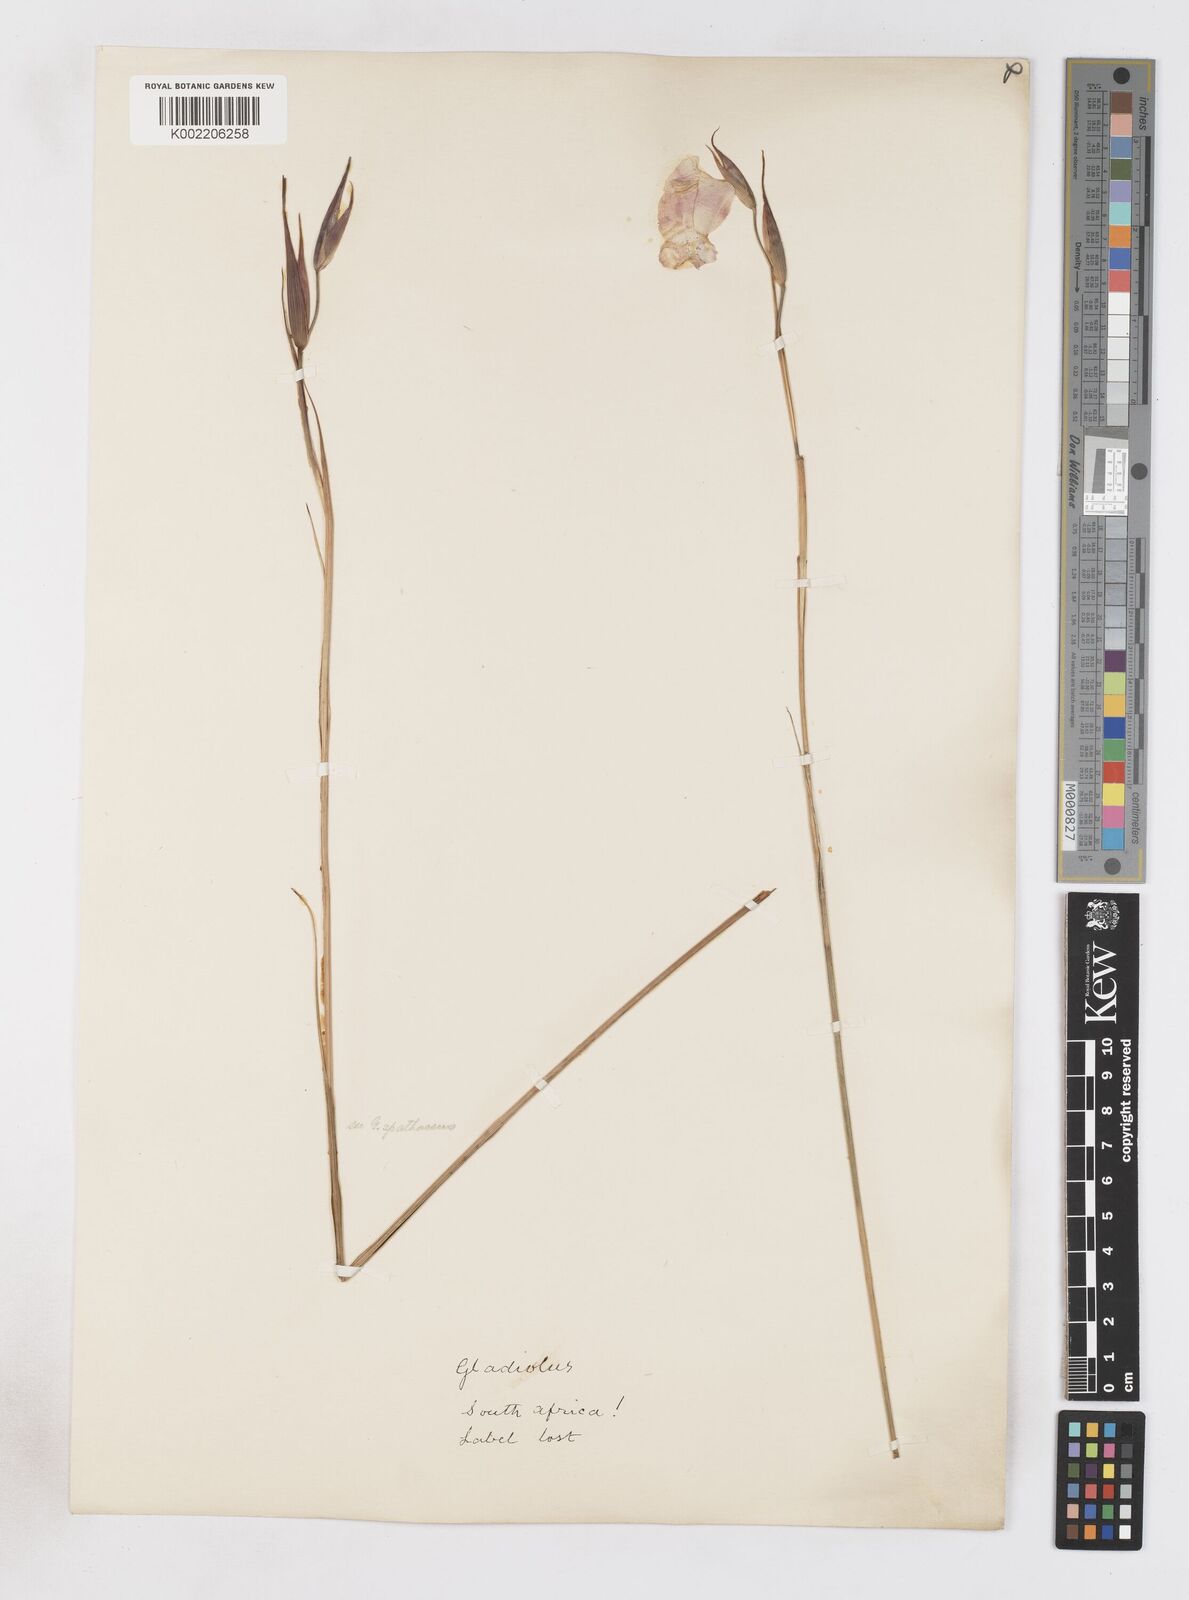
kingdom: Plantae
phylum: Tracheophyta
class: Liliopsida
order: Asparagales
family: Iridaceae
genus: Gladiolus
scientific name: Gladiolus bullatus
